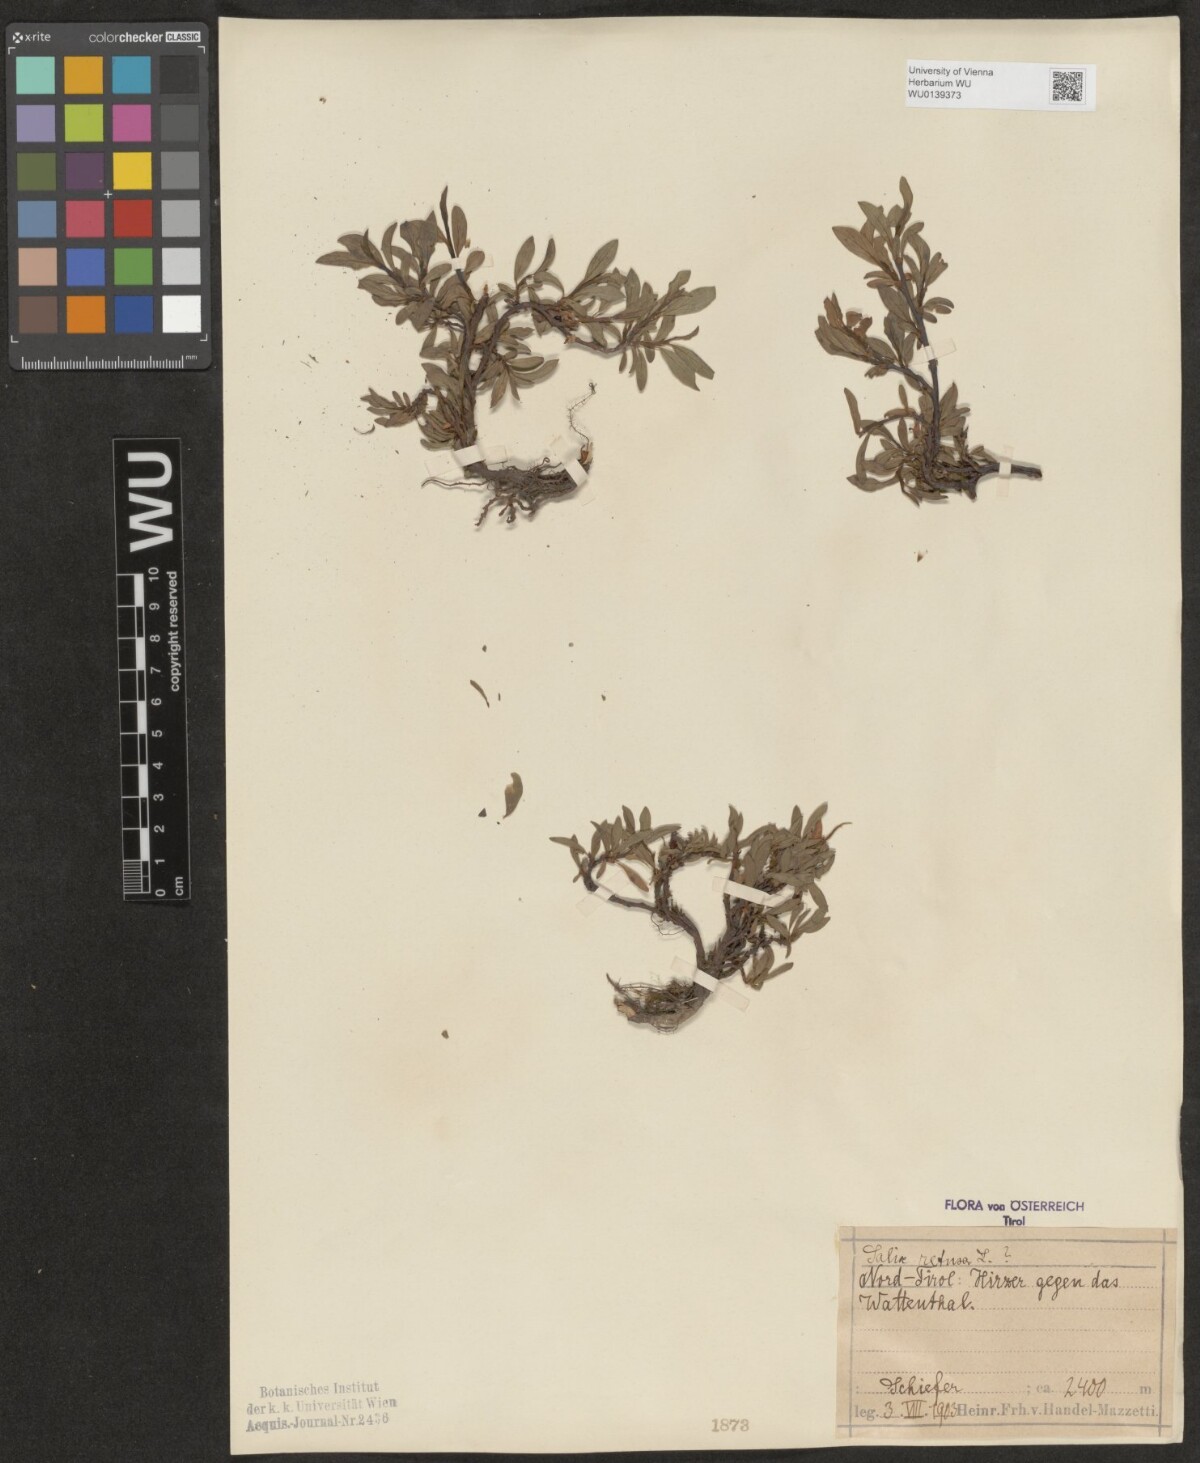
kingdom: Plantae
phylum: Tracheophyta
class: Magnoliopsida
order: Malpighiales
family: Salicaceae
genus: Salix
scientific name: Salix retusa
